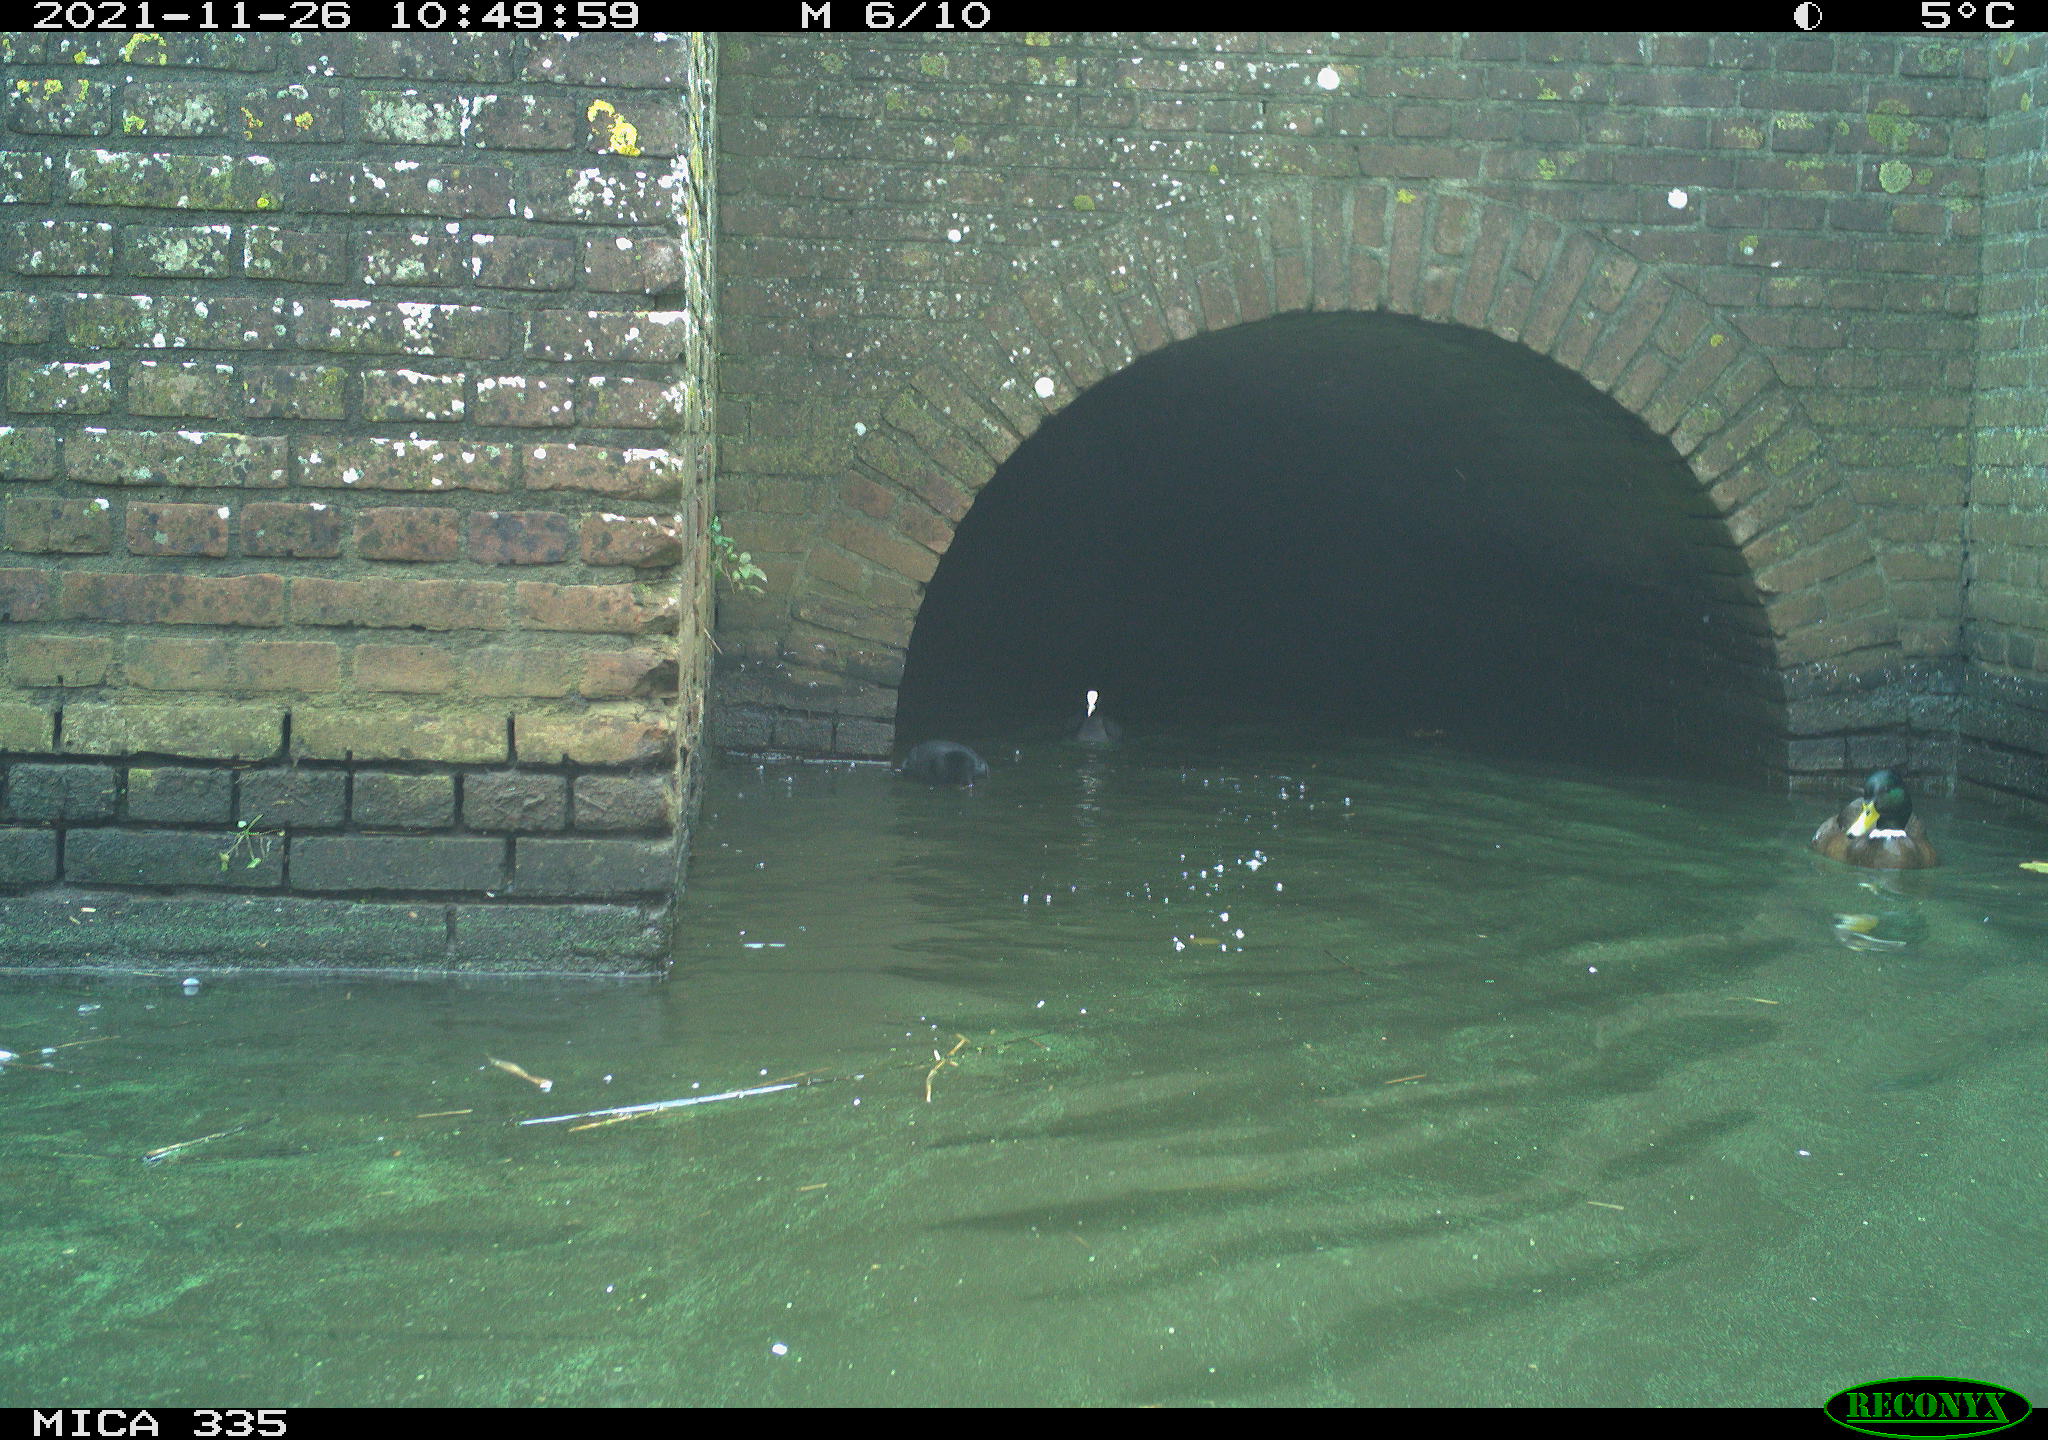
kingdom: Animalia
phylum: Chordata
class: Aves
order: Gruiformes
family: Rallidae
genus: Fulica
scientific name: Fulica atra
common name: Eurasian coot
